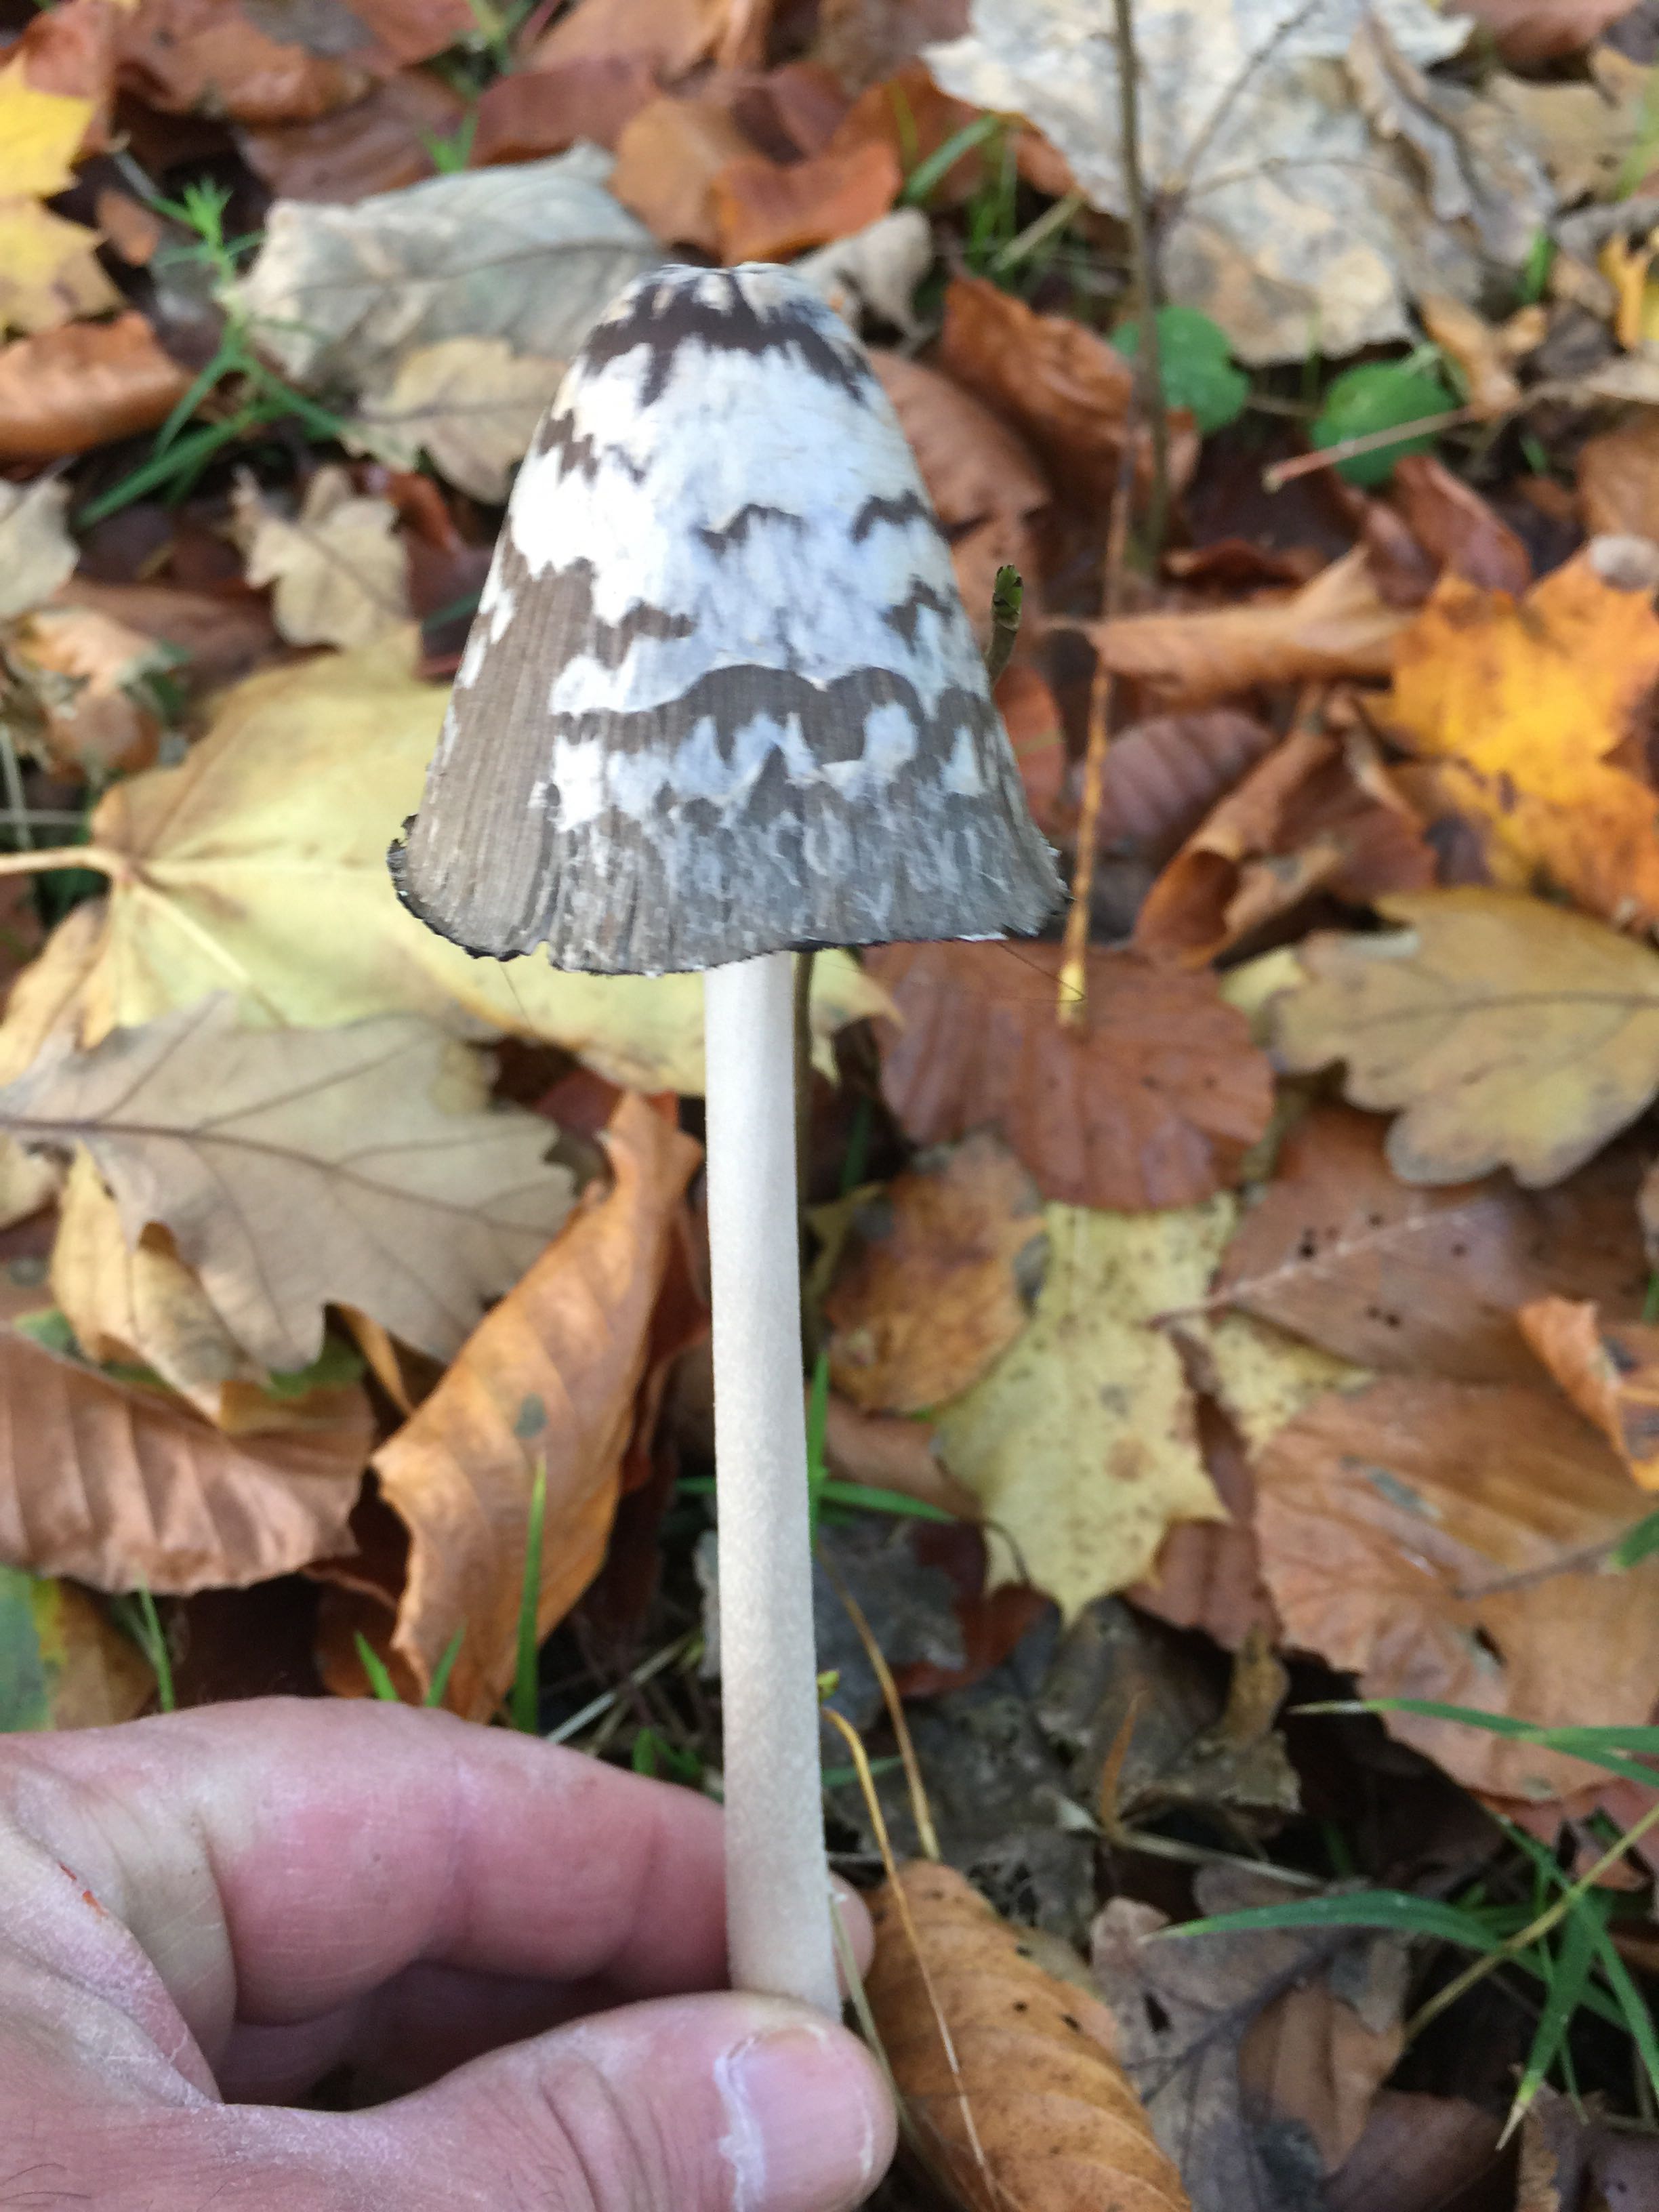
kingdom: Fungi
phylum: Basidiomycota
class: Agaricomycetes
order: Agaricales
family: Psathyrellaceae
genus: Coprinopsis
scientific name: Coprinopsis picacea
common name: skade-blækhat
